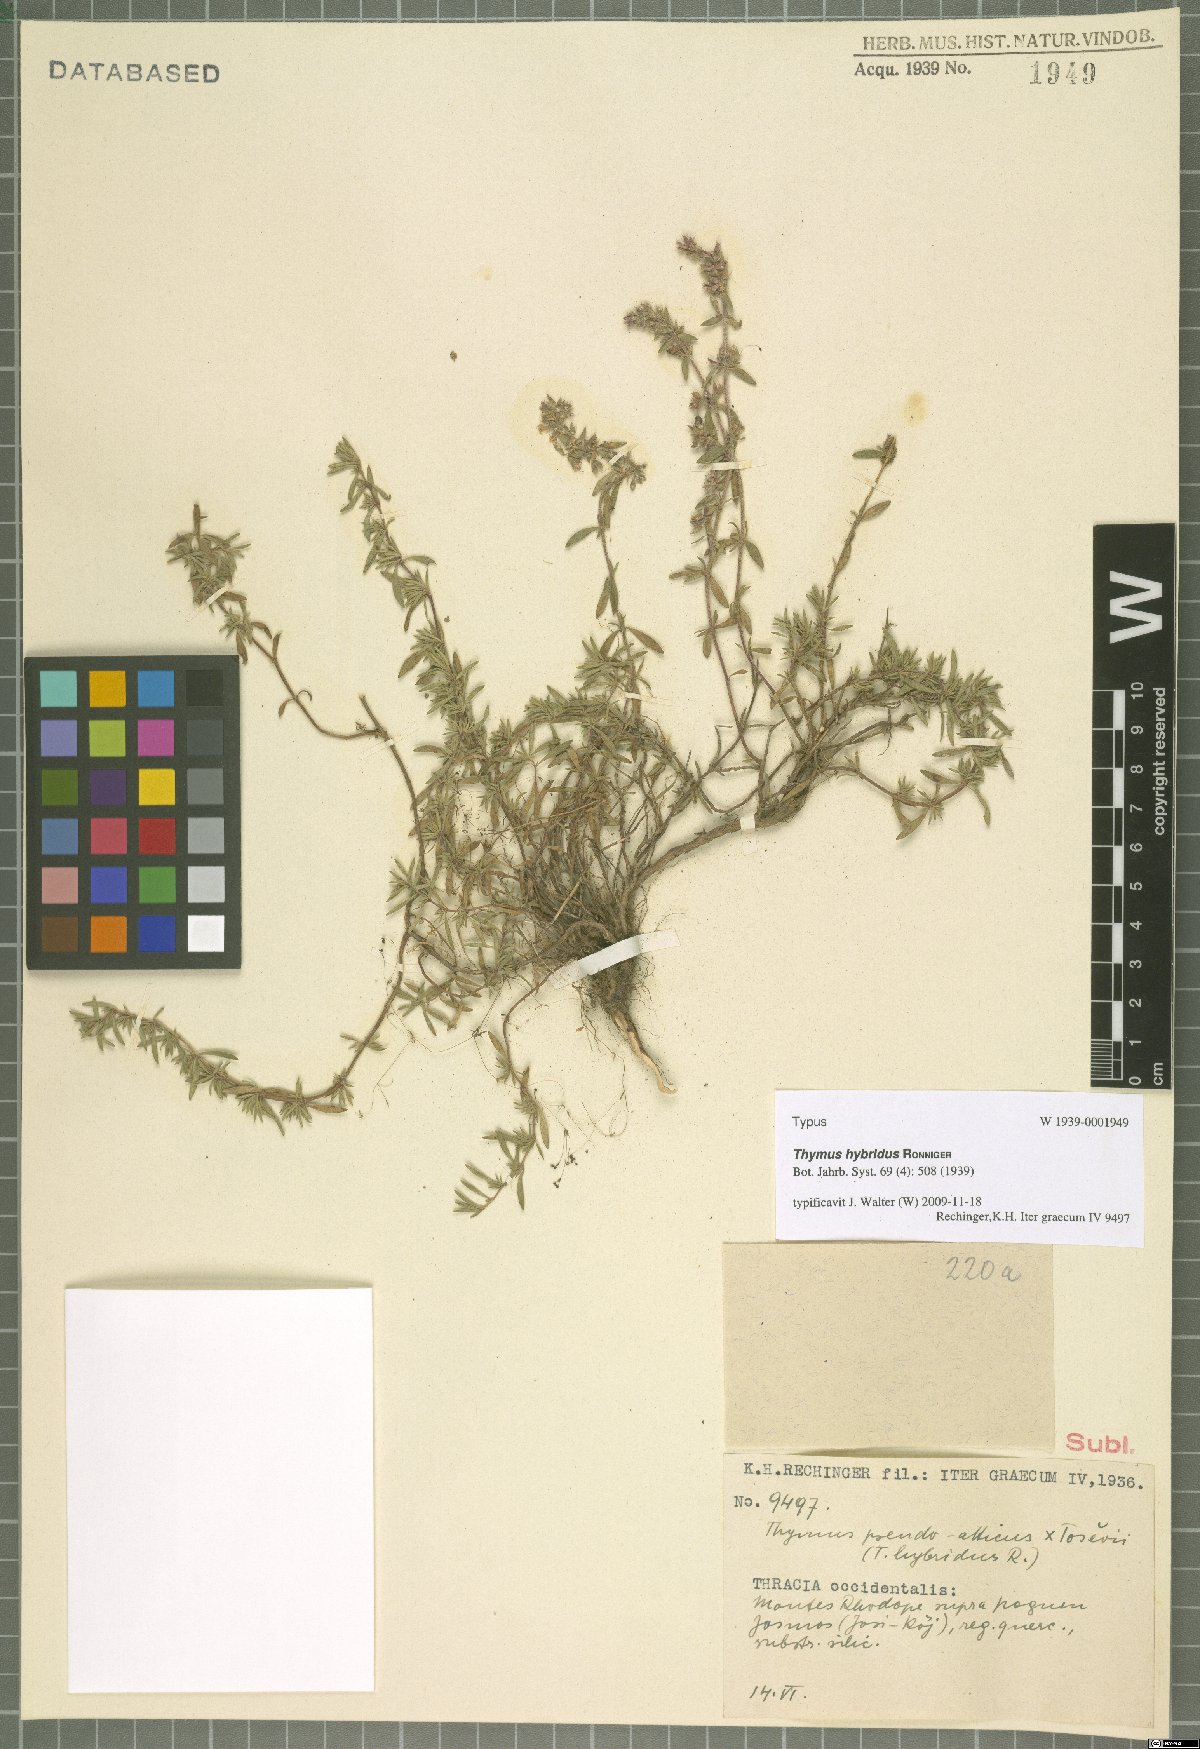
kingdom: Plantae
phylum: Tracheophyta
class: Magnoliopsida
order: Lamiales
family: Lamiaceae
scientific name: Lamiaceae
